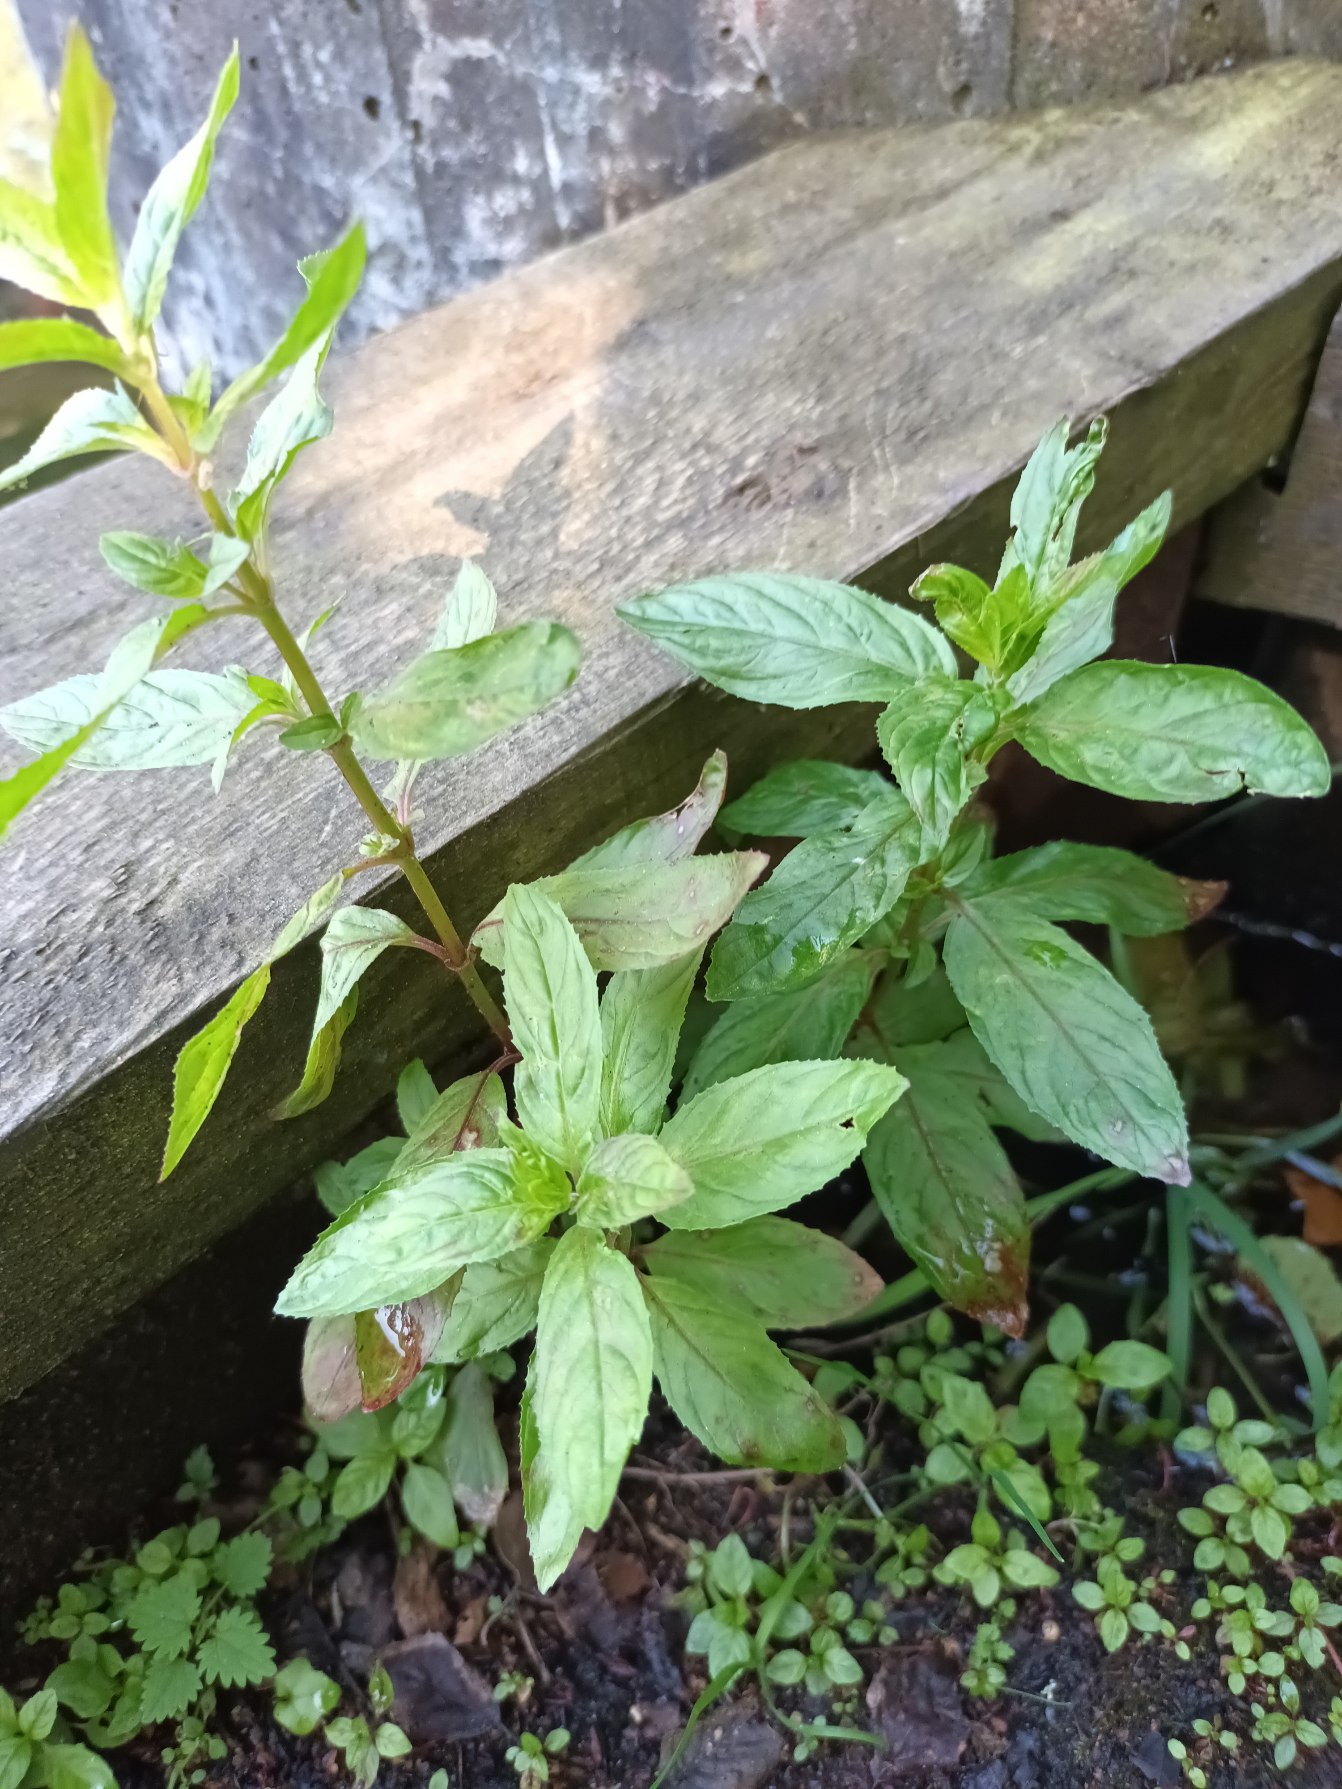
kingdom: Plantae
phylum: Tracheophyta
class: Magnoliopsida
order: Myrtales
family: Onagraceae
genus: Epilobium
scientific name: Epilobium roseum
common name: Rosen-dueurt
